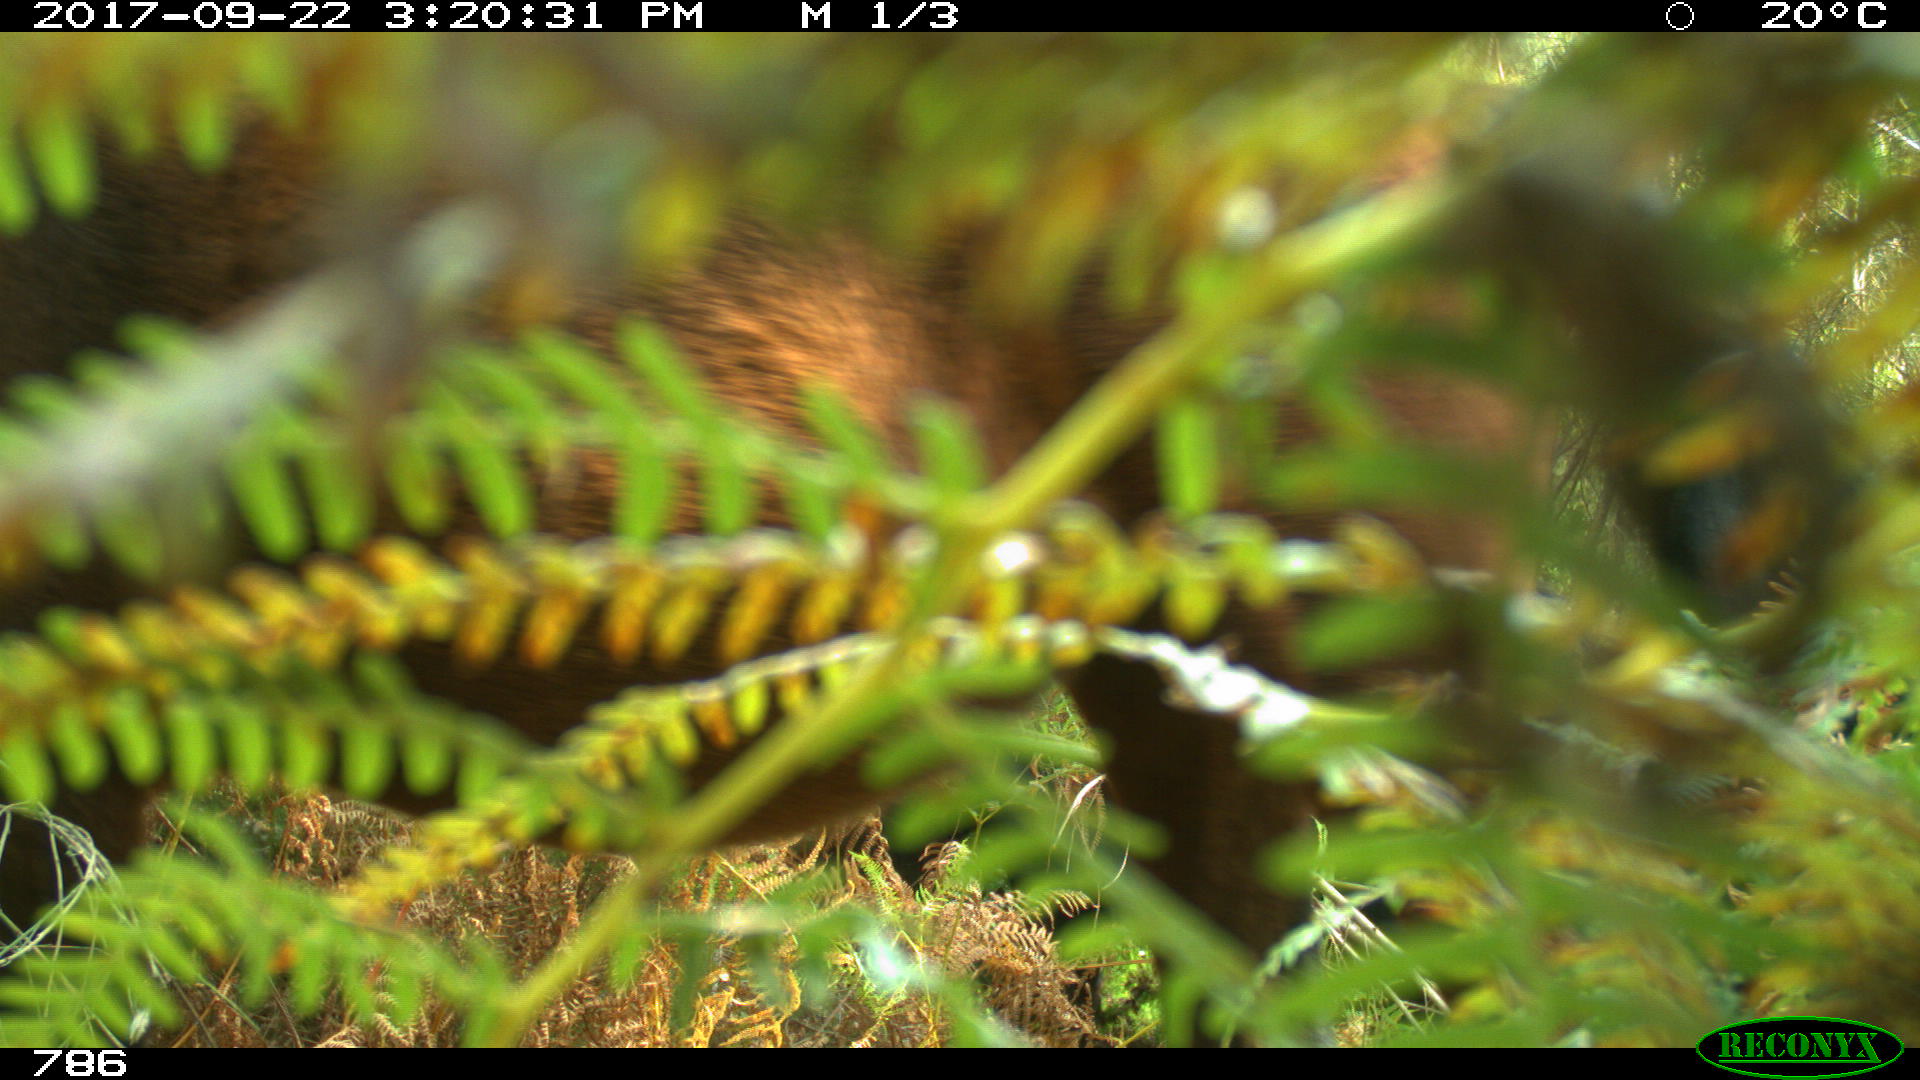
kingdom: Animalia
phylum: Chordata
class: Mammalia
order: Perissodactyla
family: Equidae
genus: Equus
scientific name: Equus caballus
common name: Horse
